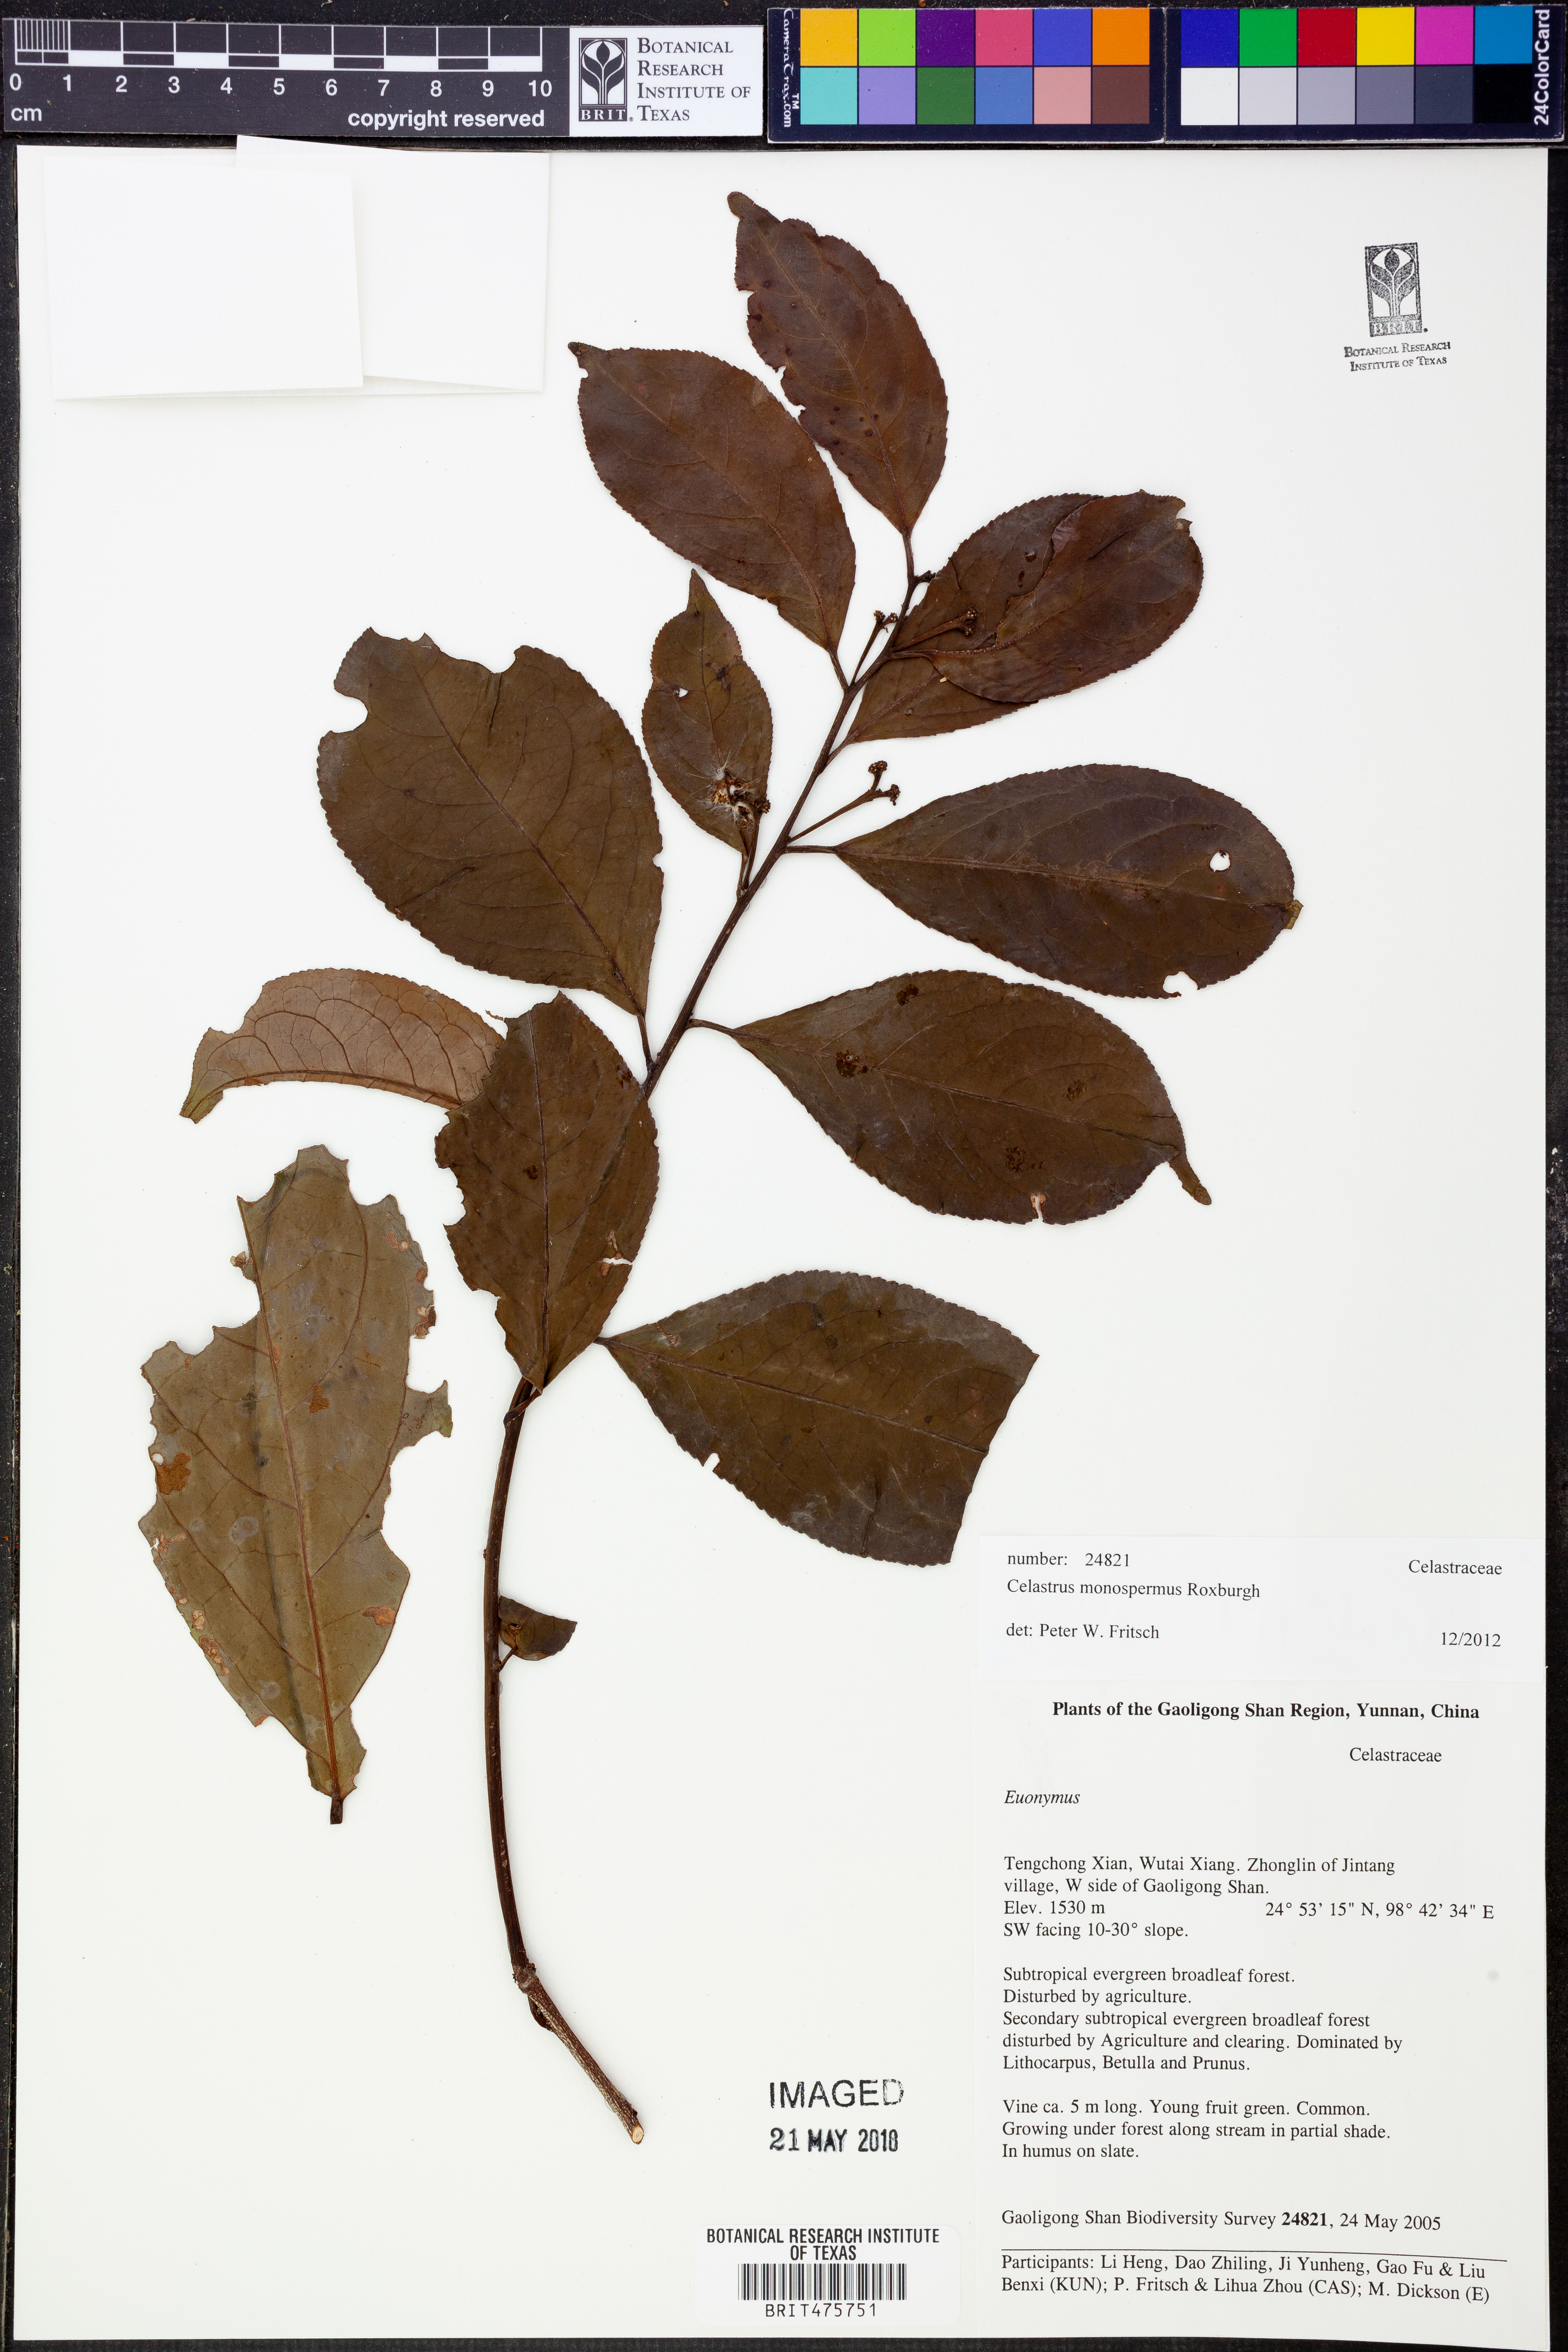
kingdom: Plantae
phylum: Tracheophyta
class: Magnoliopsida
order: Celastrales
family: Celastraceae
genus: Celastrus
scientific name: Celastrus monospermus
